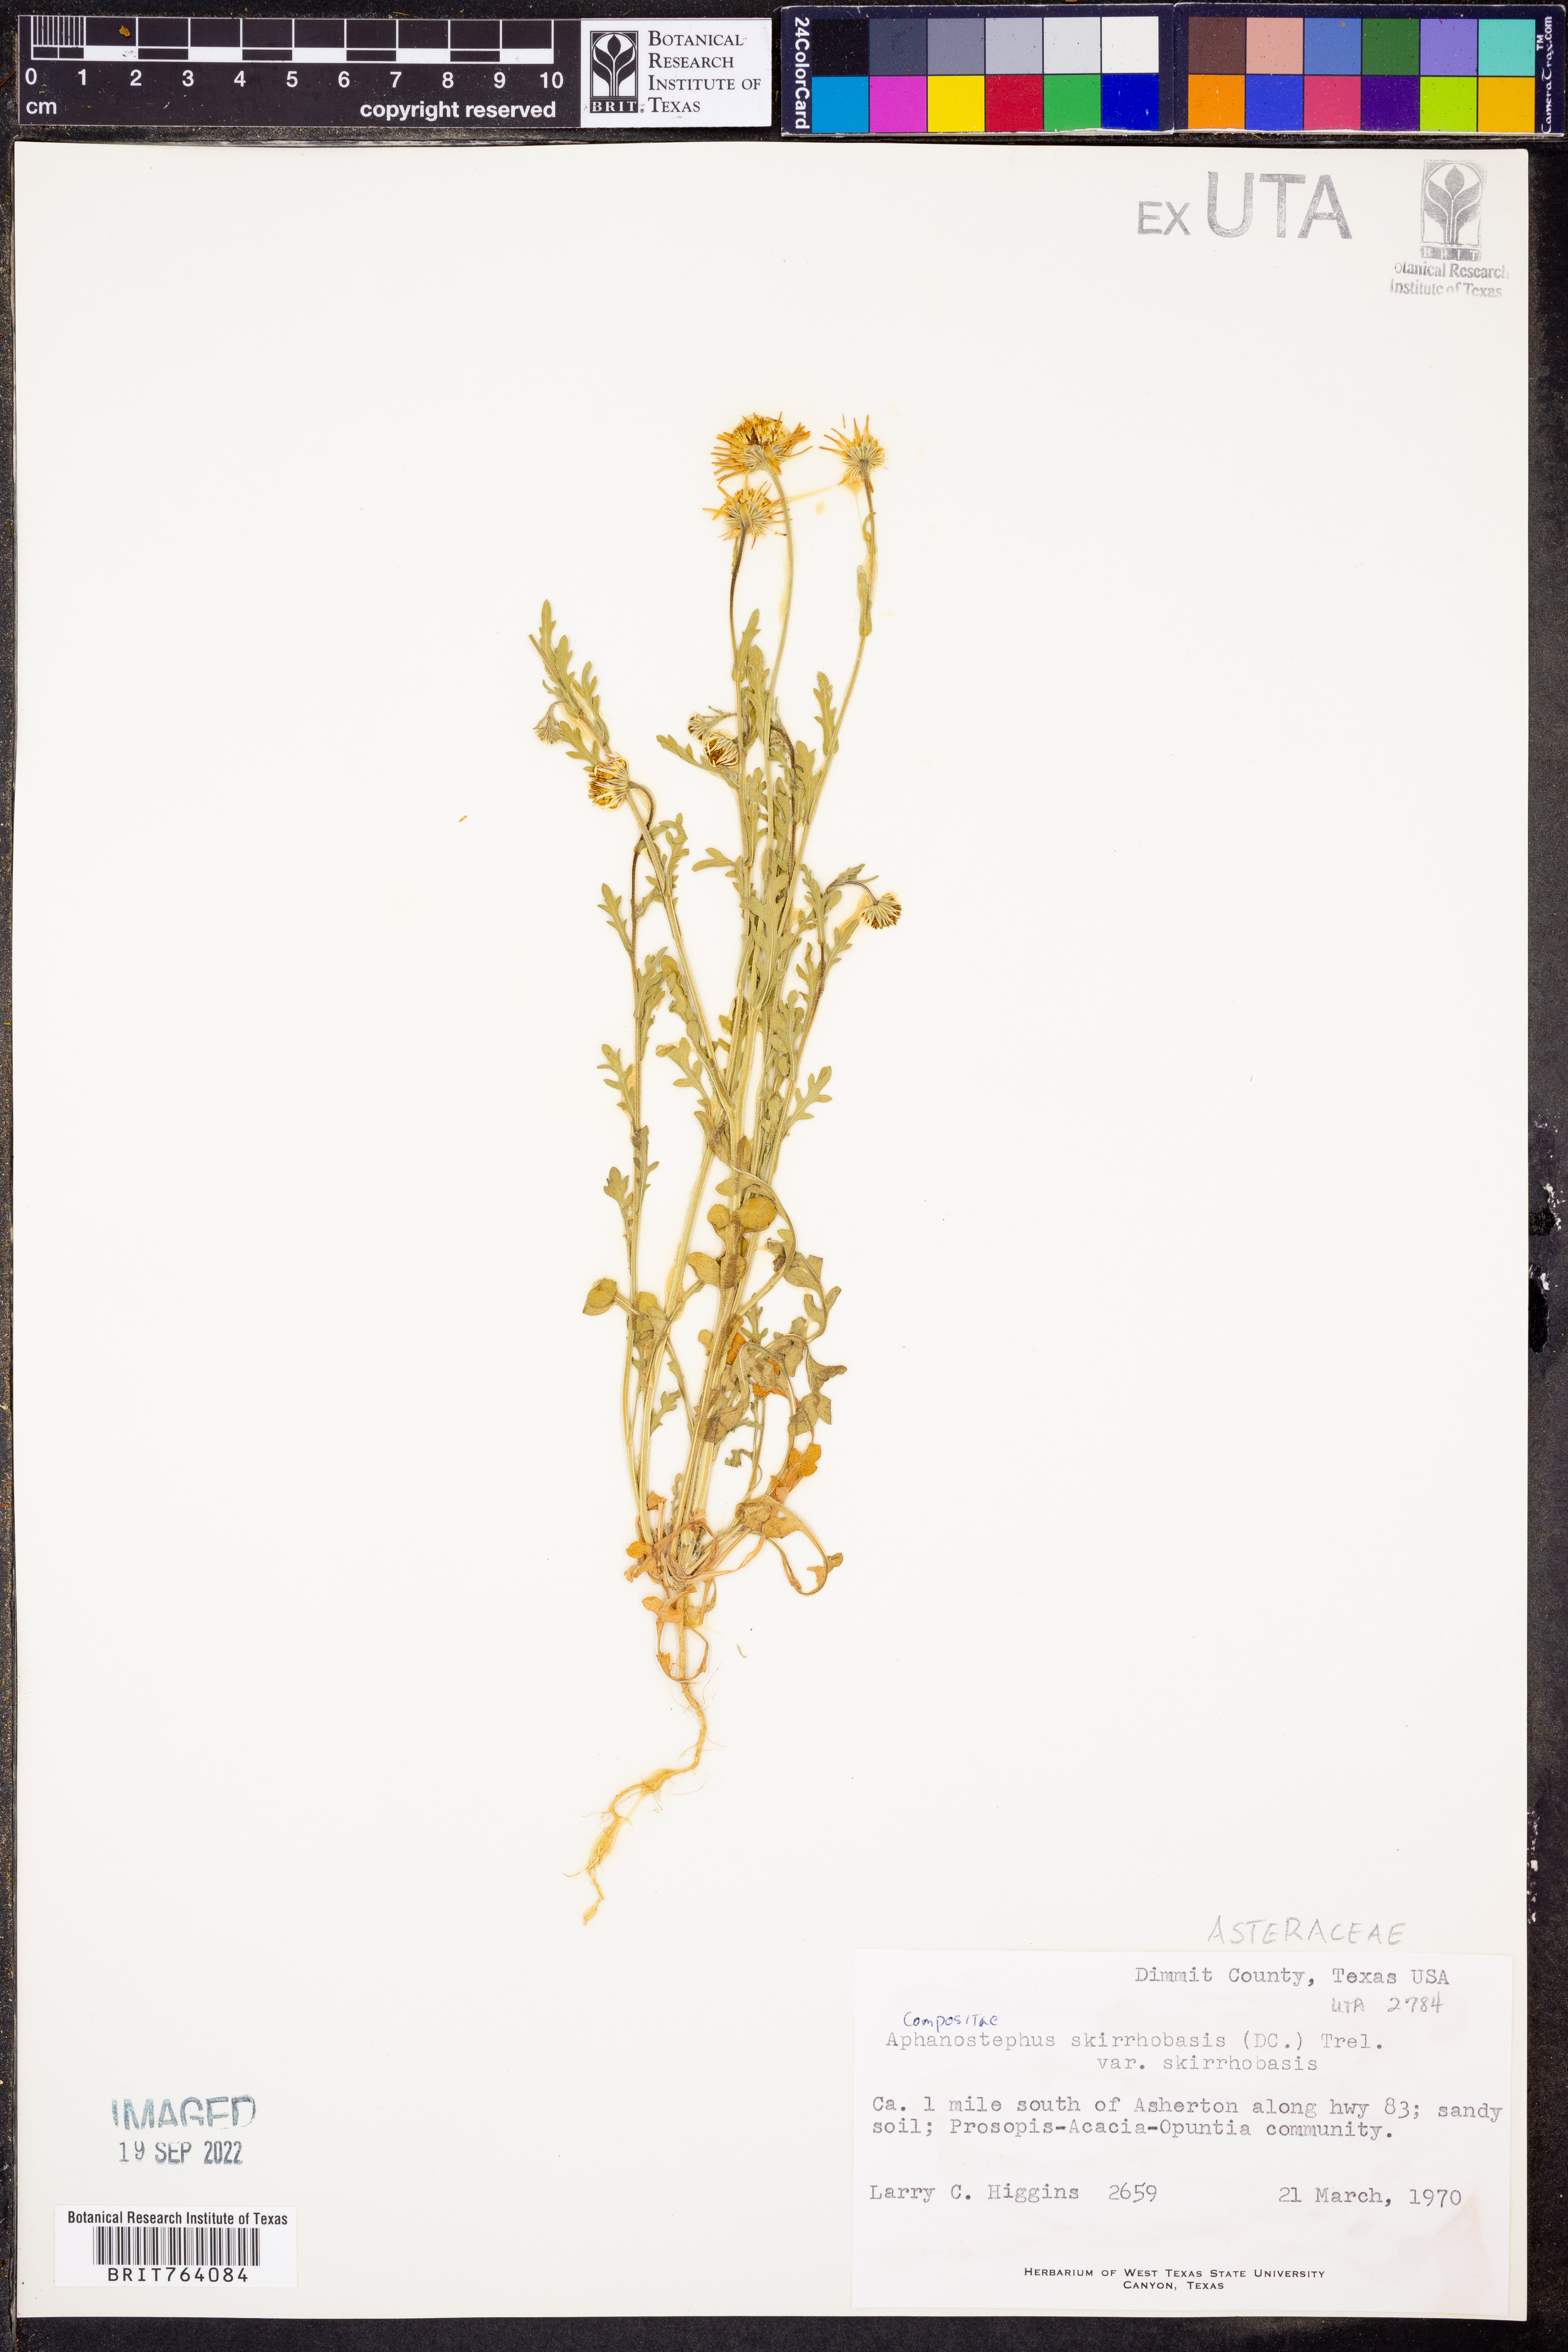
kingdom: Plantae
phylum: Tracheophyta
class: Magnoliopsida
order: Asterales
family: Asteraceae
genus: Aphanostephus
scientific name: Aphanostephus skirrhobasis
